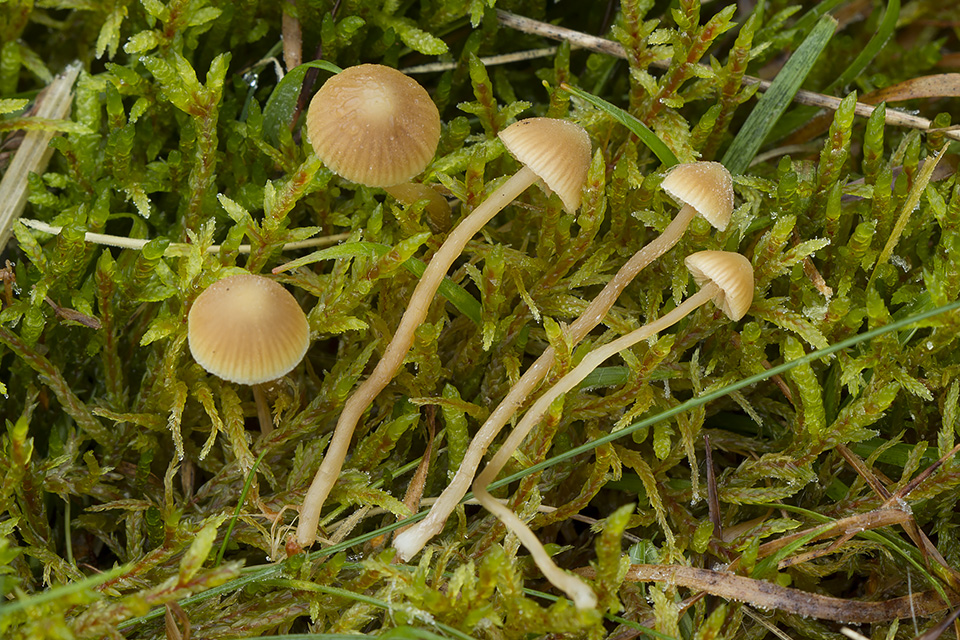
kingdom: Fungi
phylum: Basidiomycota
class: Agaricomycetes
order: Agaricales
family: Hymenogastraceae
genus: Galerina
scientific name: Galerina mniophila
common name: olivengul hjelmhat
